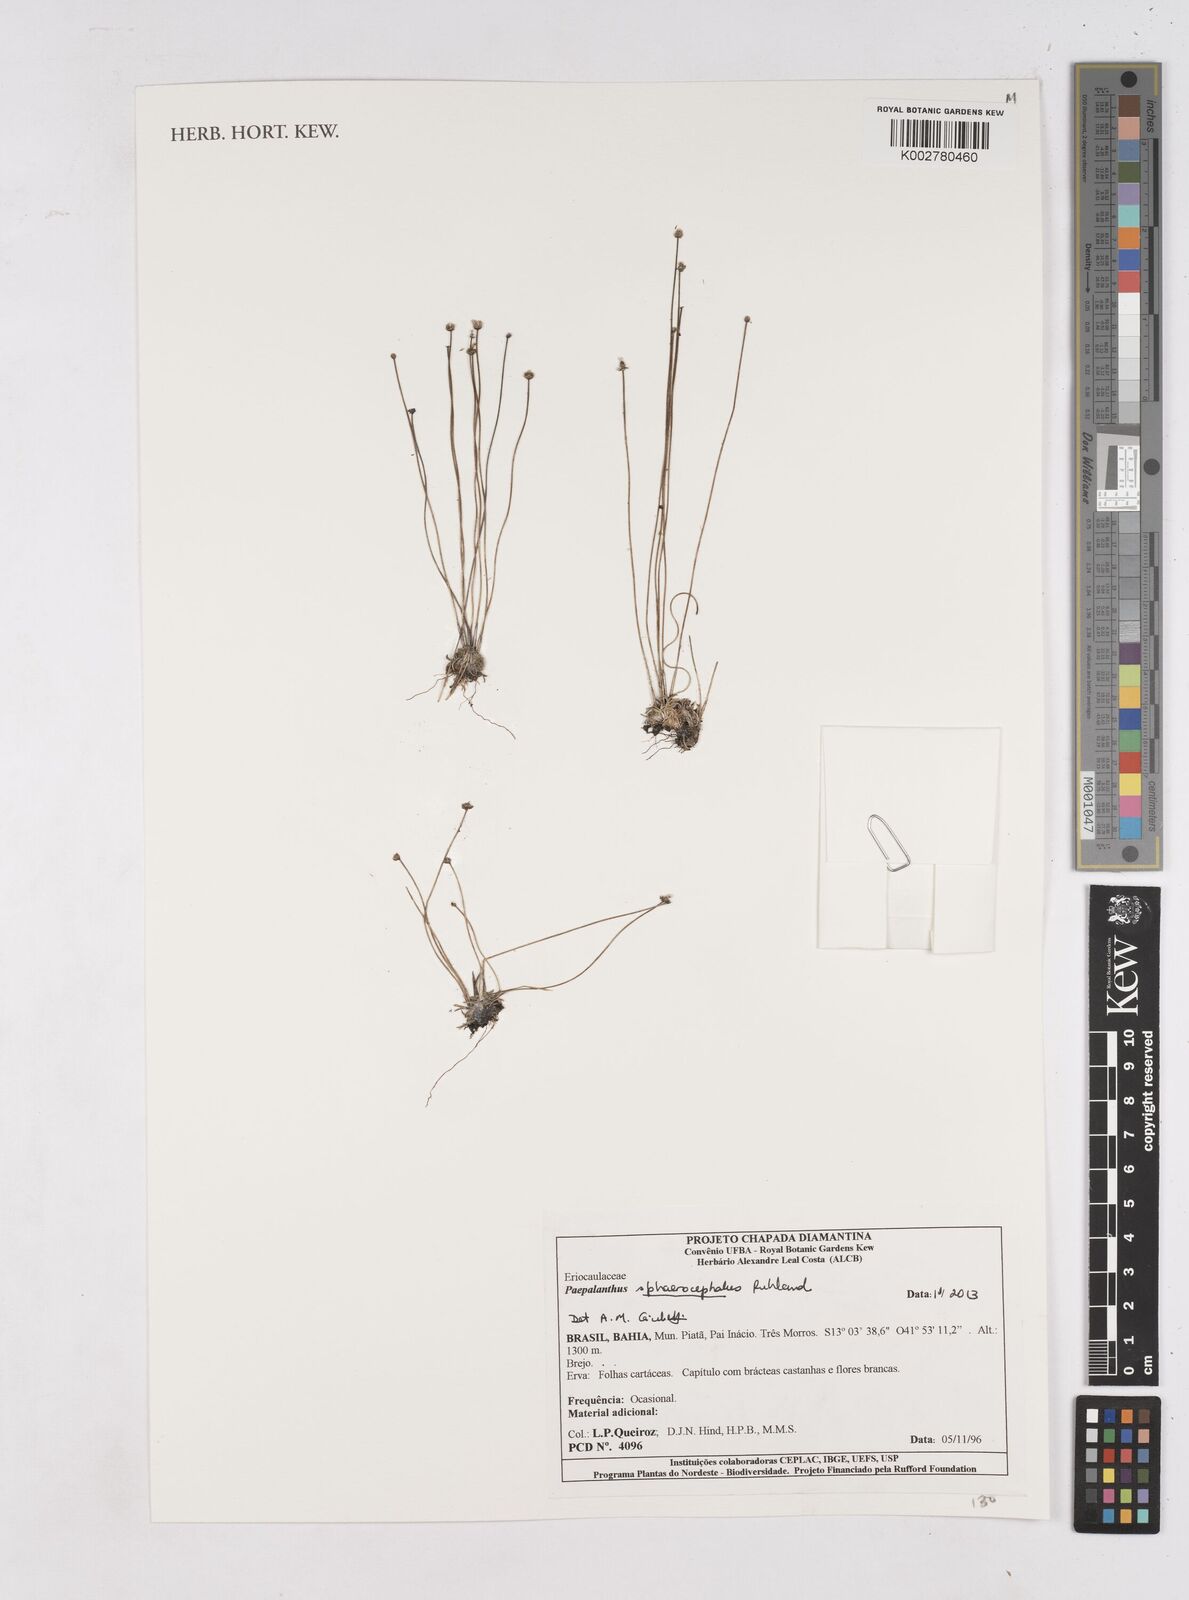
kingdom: Plantae
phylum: Tracheophyta
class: Liliopsida
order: Poales
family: Eriocaulaceae
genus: Paepalanthus
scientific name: Paepalanthus sphaerocephalus
